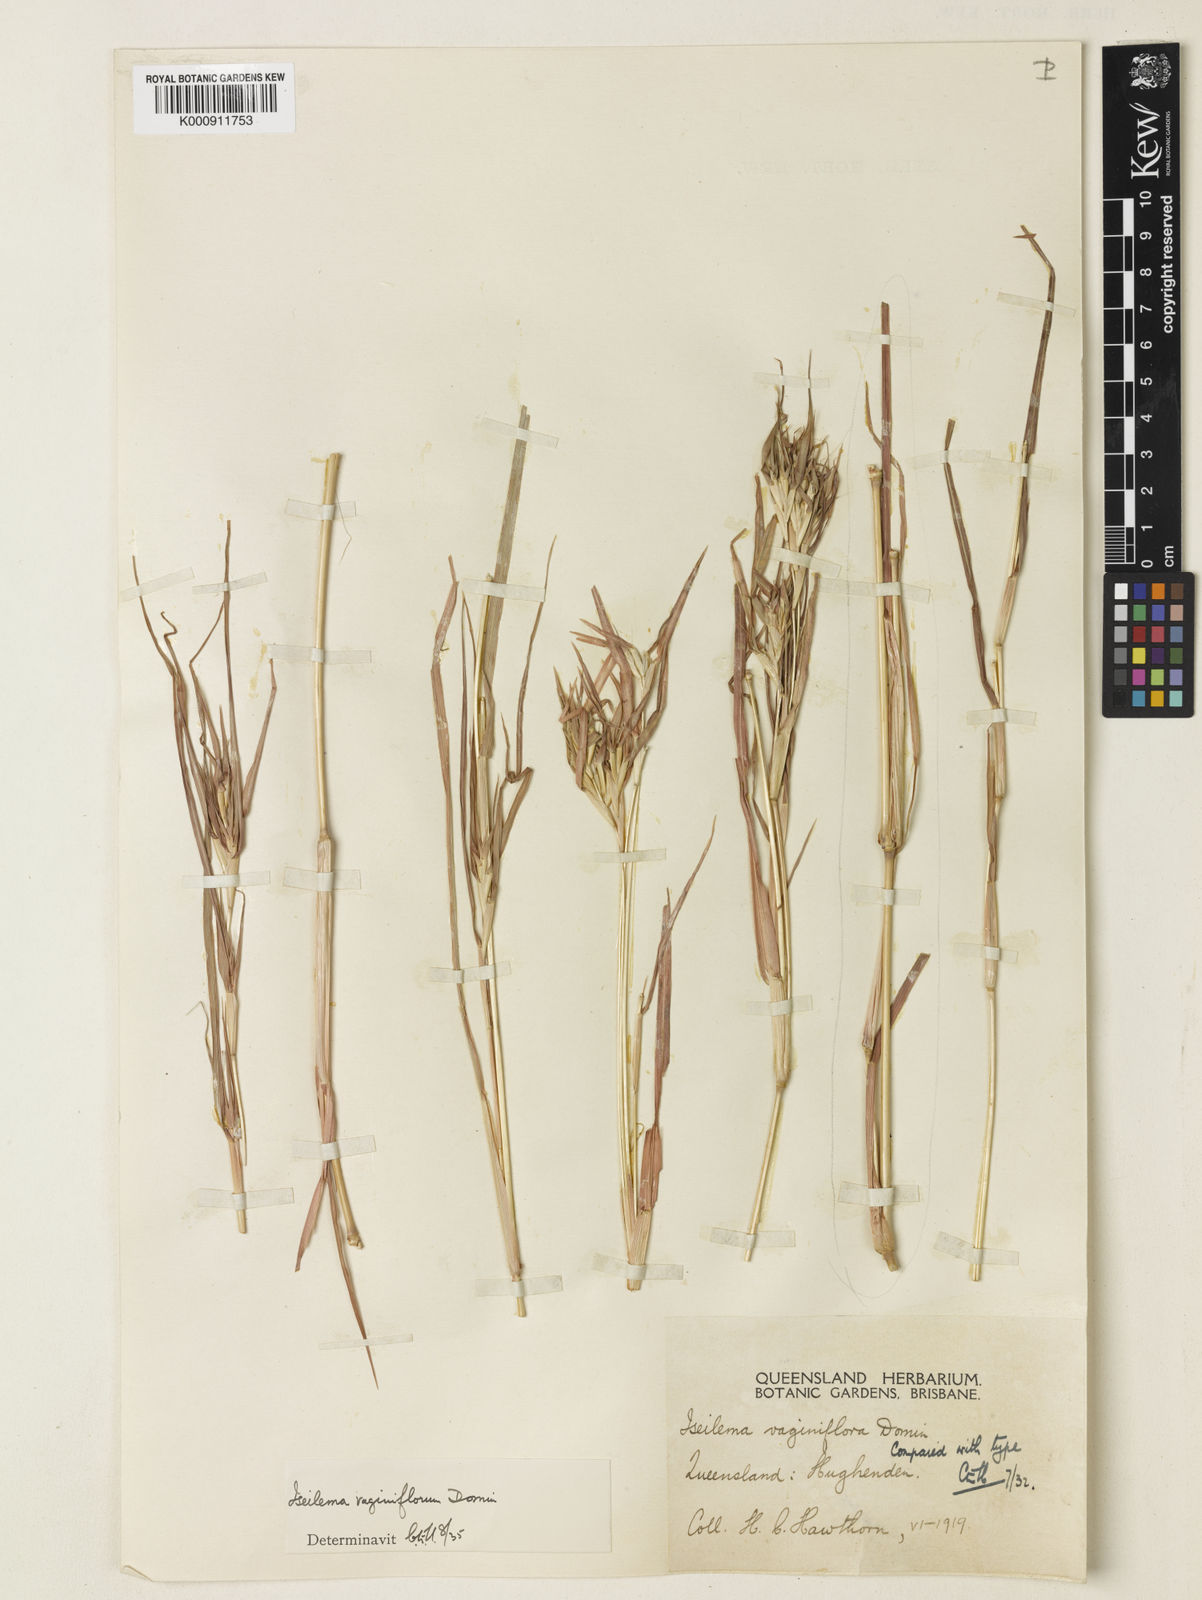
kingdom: Plantae
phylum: Tracheophyta
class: Liliopsida
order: Poales
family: Poaceae
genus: Iseilema
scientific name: Iseilema vaginiflorum
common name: Red flinders grass
